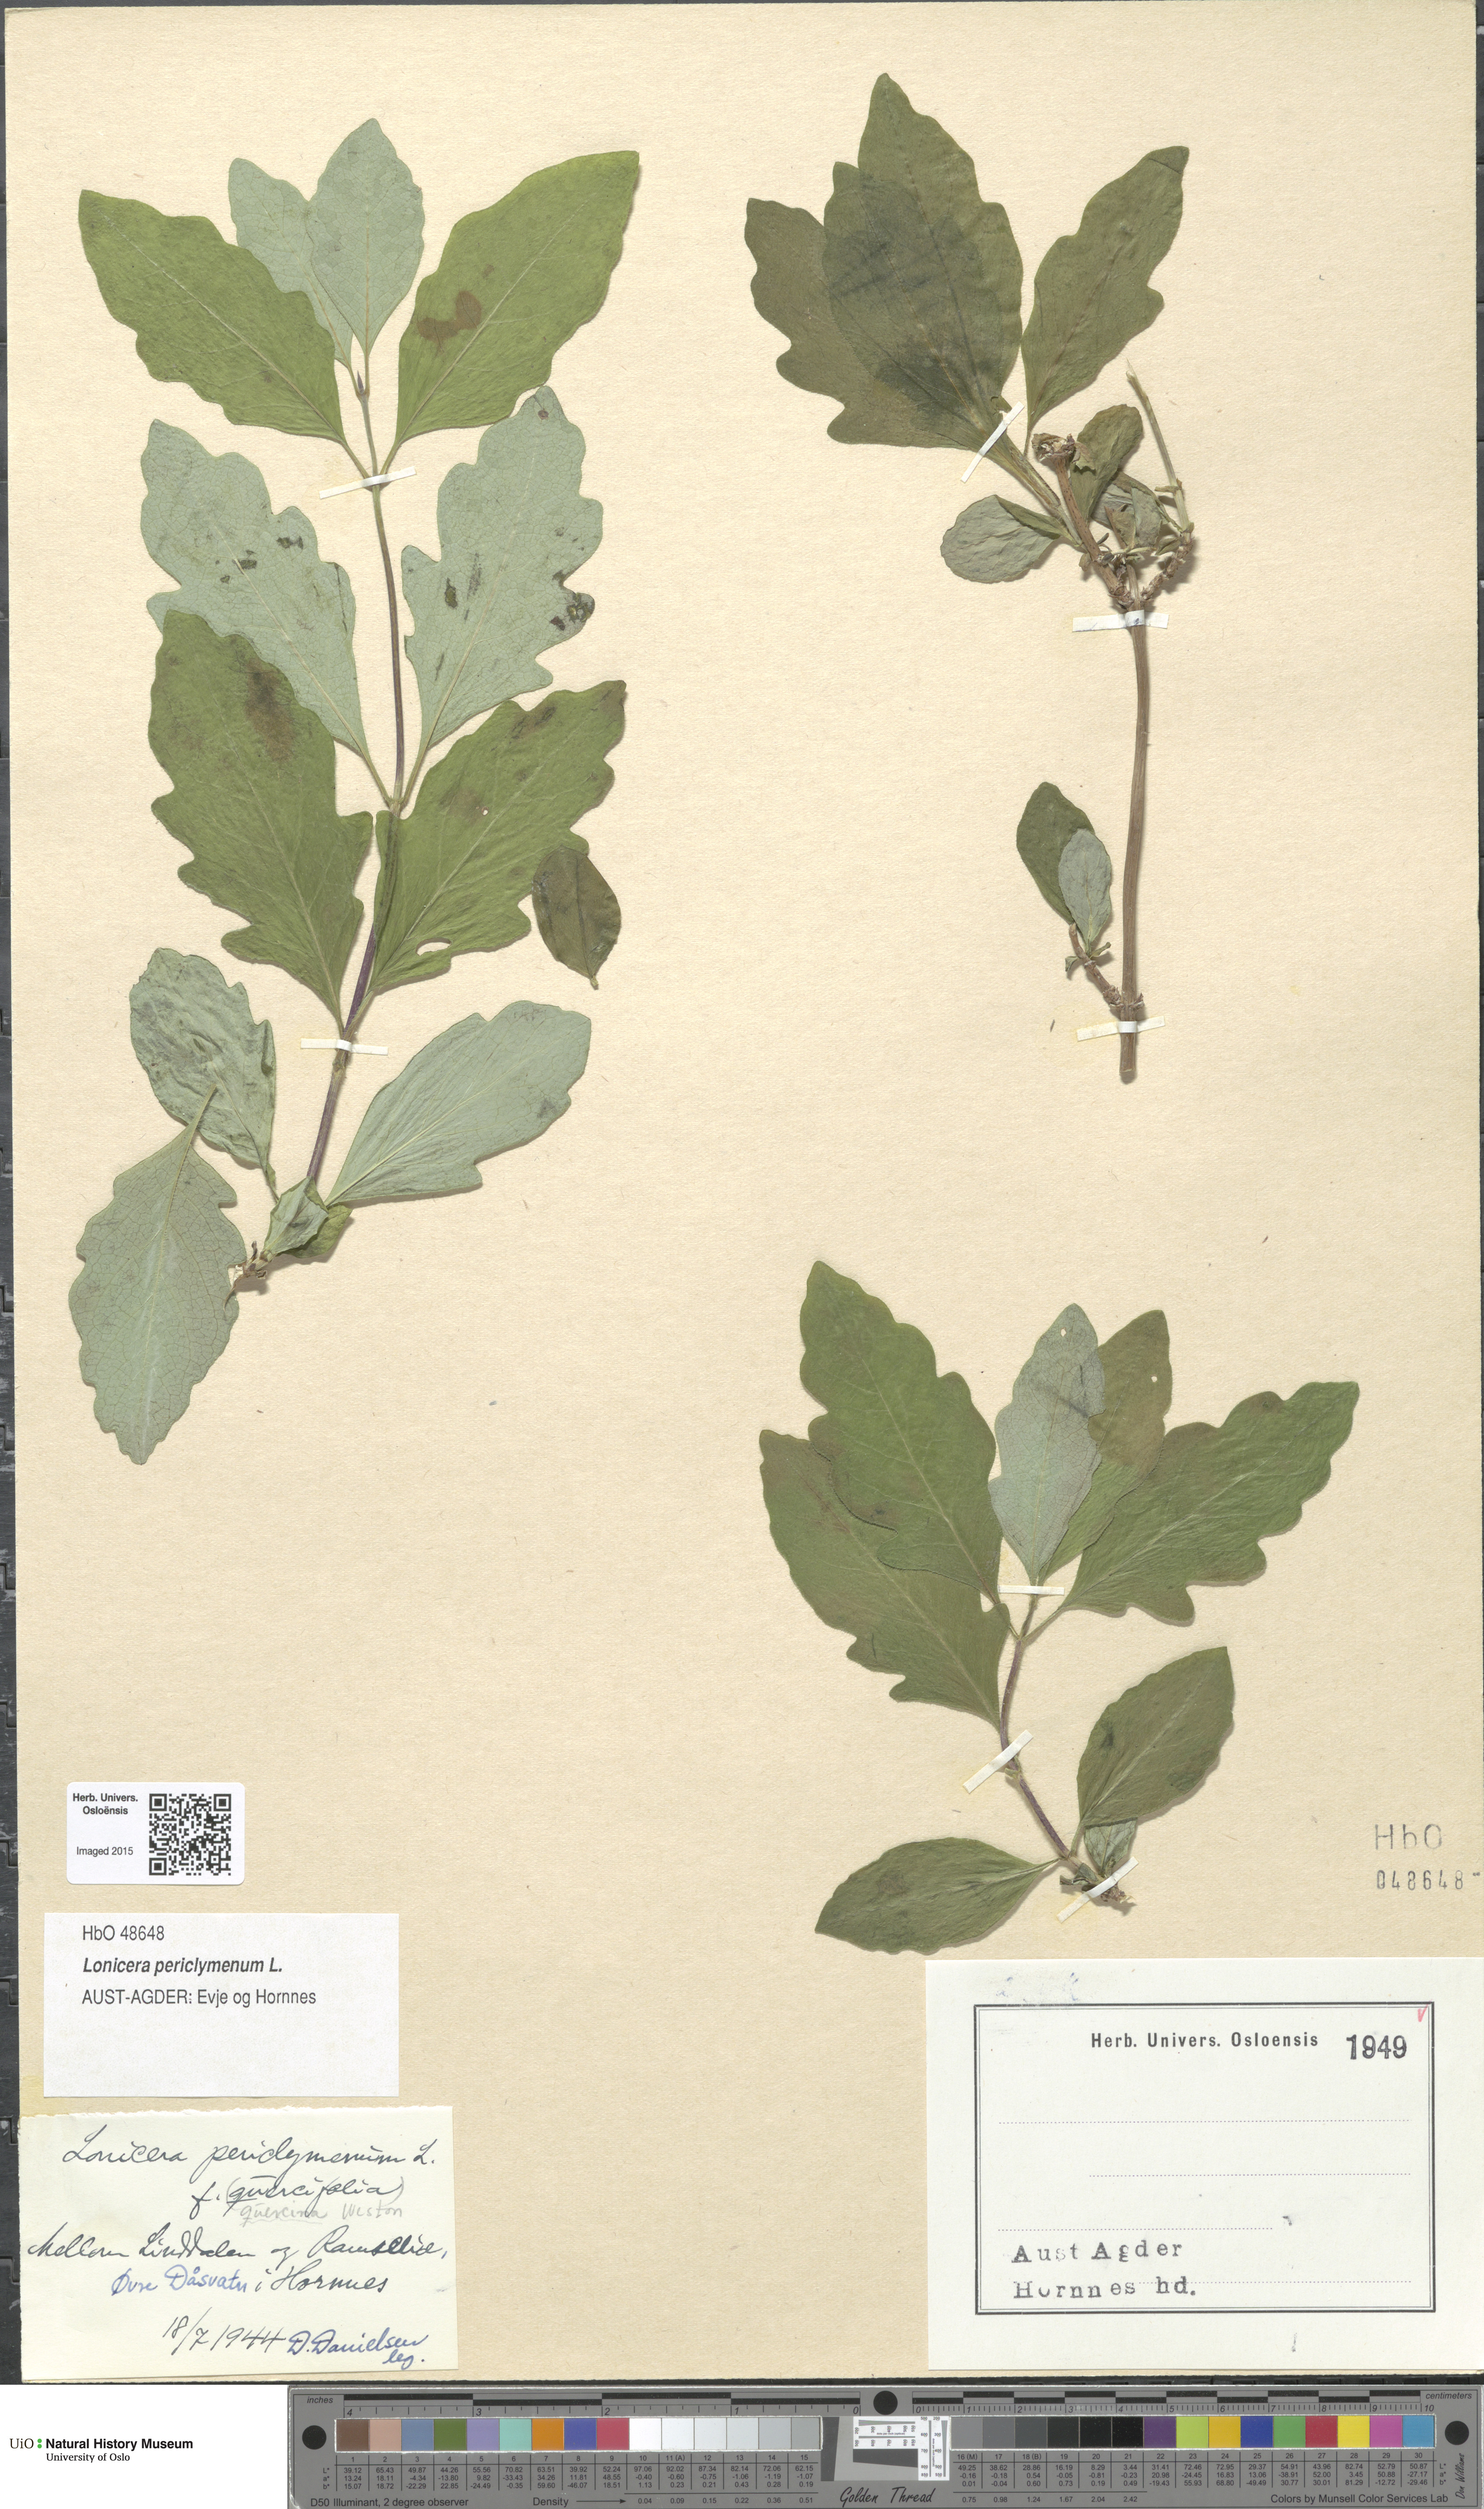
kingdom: Plantae
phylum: Tracheophyta
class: Magnoliopsida
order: Dipsacales
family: Caprifoliaceae
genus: Lonicera
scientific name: Lonicera periclymenum
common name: European honeysuckle
